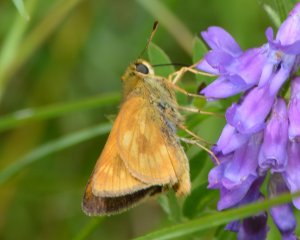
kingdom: Animalia
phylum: Arthropoda
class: Insecta
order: Lepidoptera
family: Hesperiidae
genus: Polites
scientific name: Polites
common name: Long Dash Skipper
